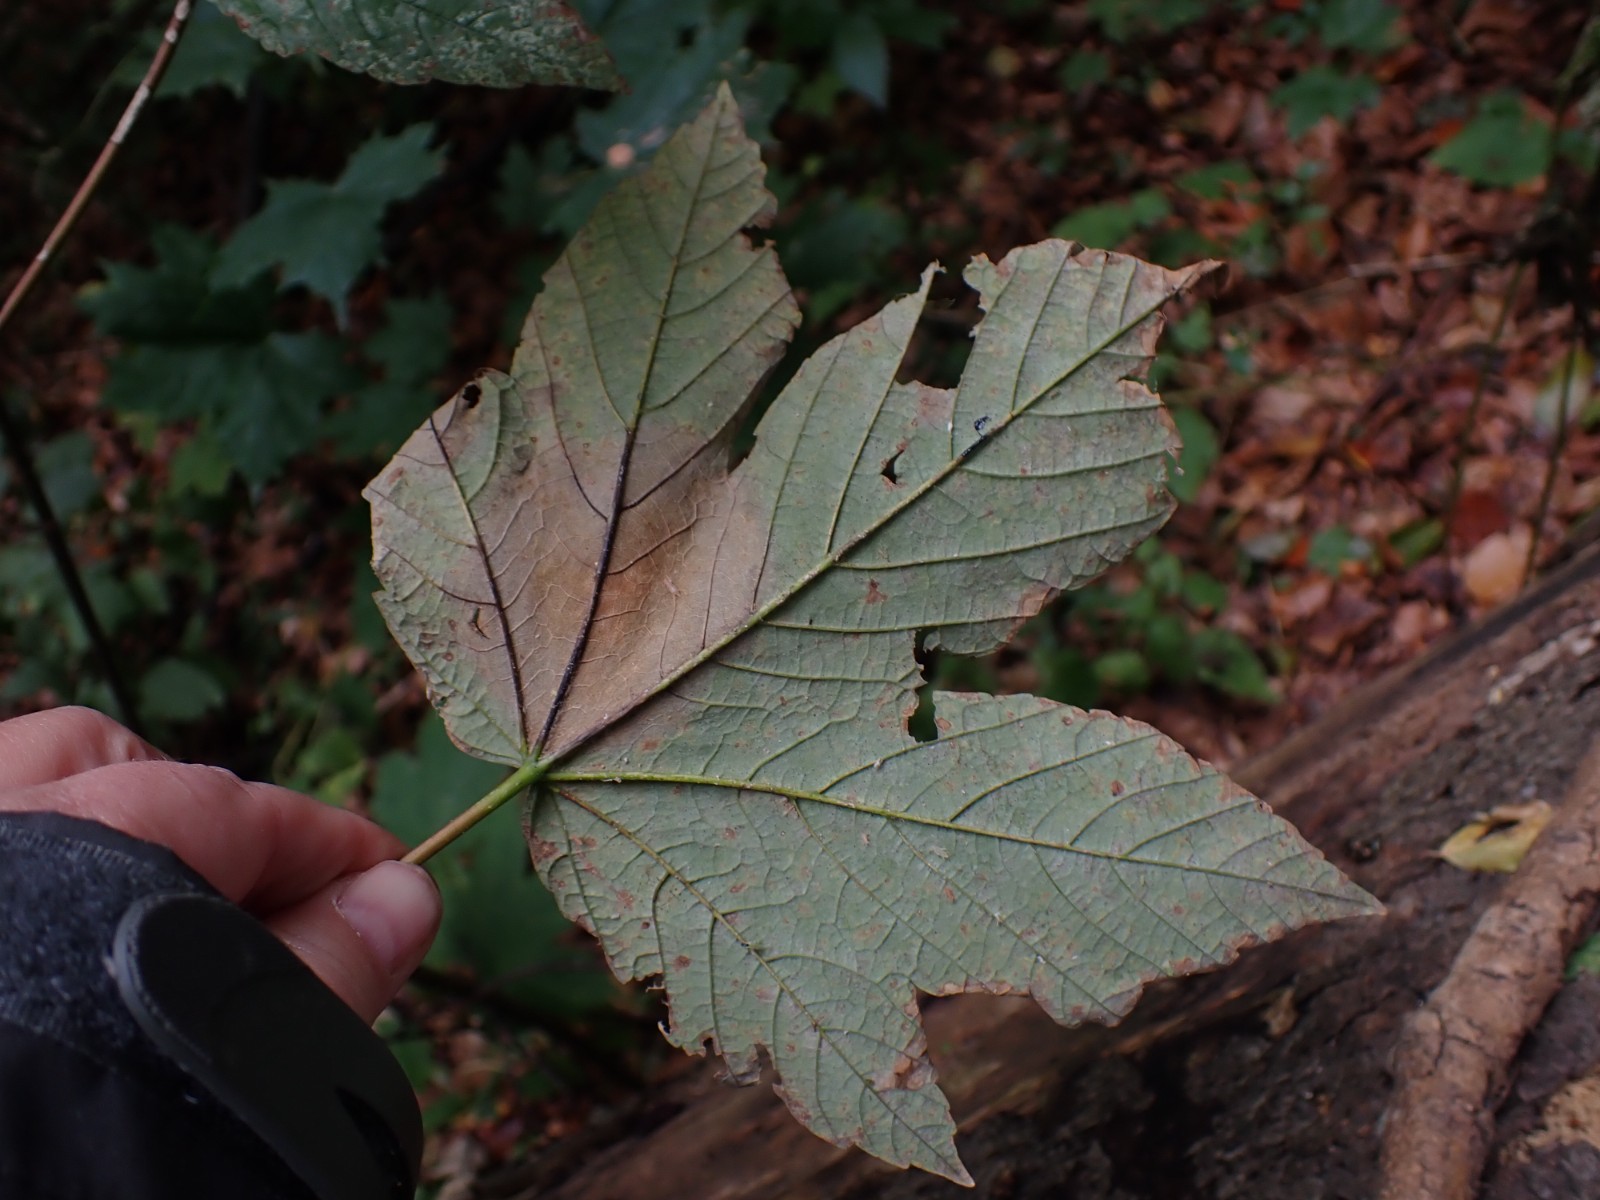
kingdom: Fungi
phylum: Ascomycota
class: Sordariomycetes
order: Diaporthales
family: Gnomoniaceae
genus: Pleuroceras
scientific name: Pleuroceras pseudoplatani
